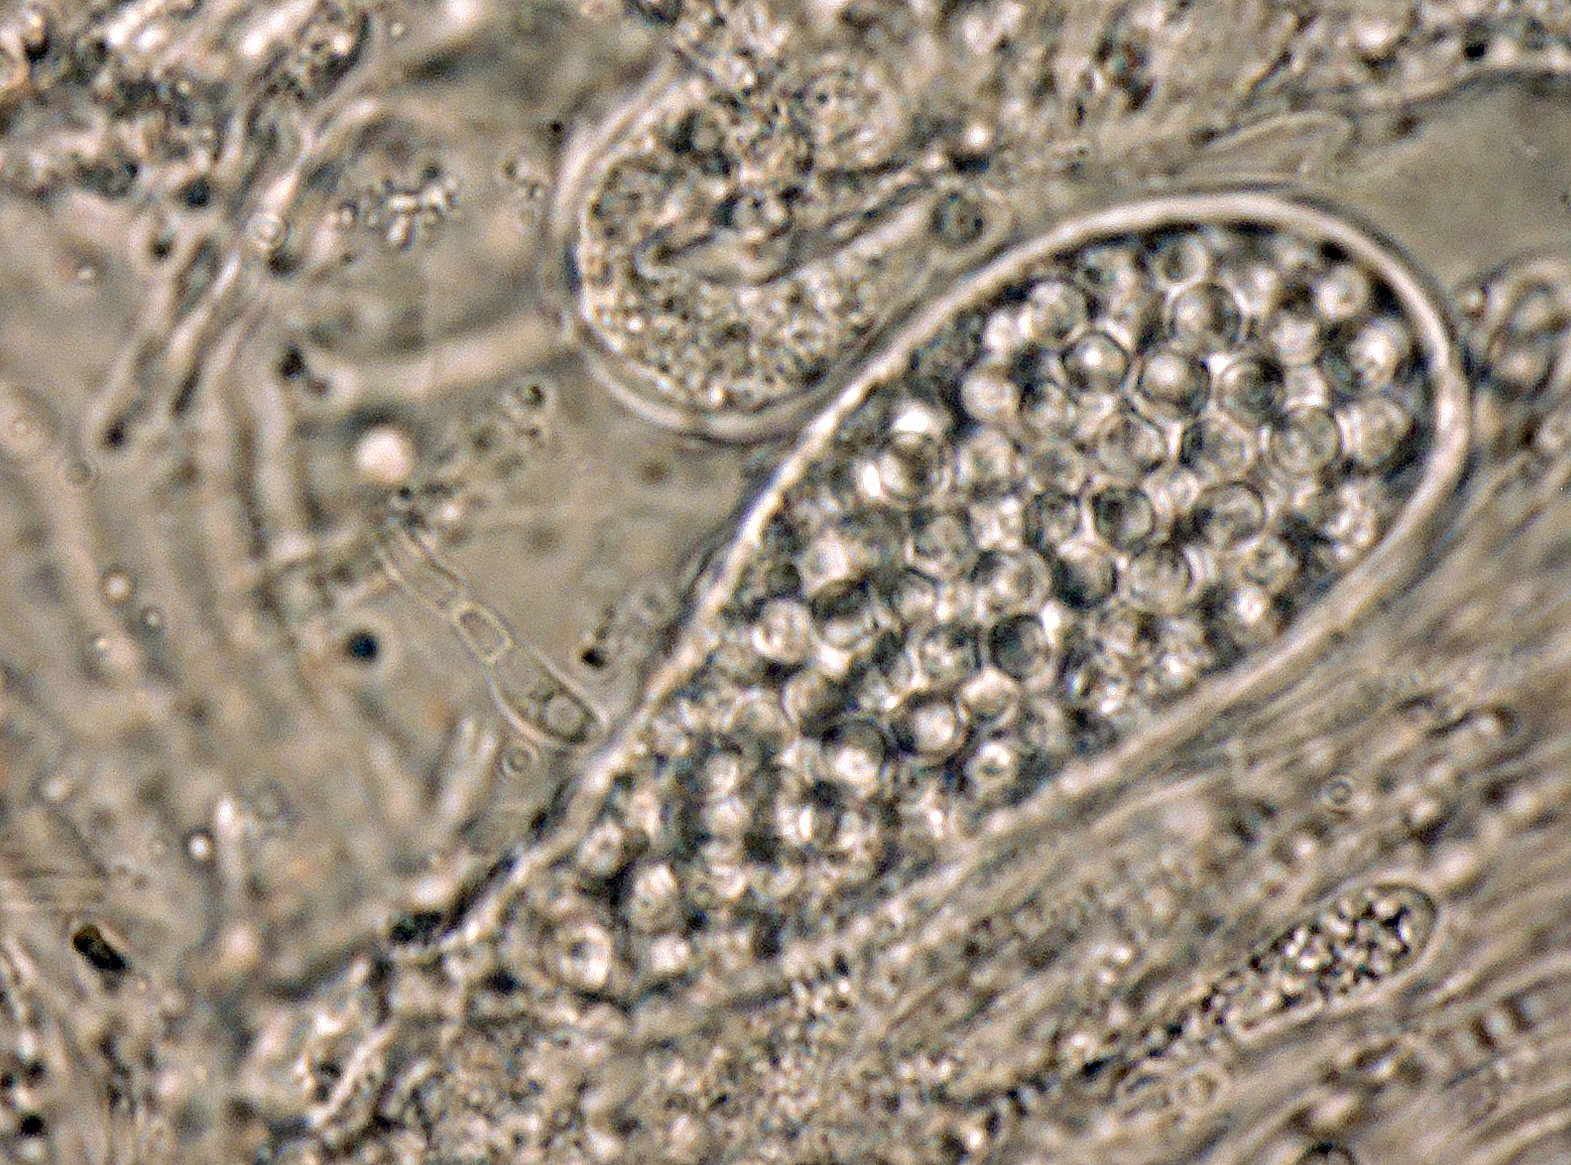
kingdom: Fungi
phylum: Ascomycota
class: Lecanoromycetes
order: Lecanorales
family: Strangosporaceae
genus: Strangospora
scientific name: Strangospora moriformis
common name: grå tusindsporelav
